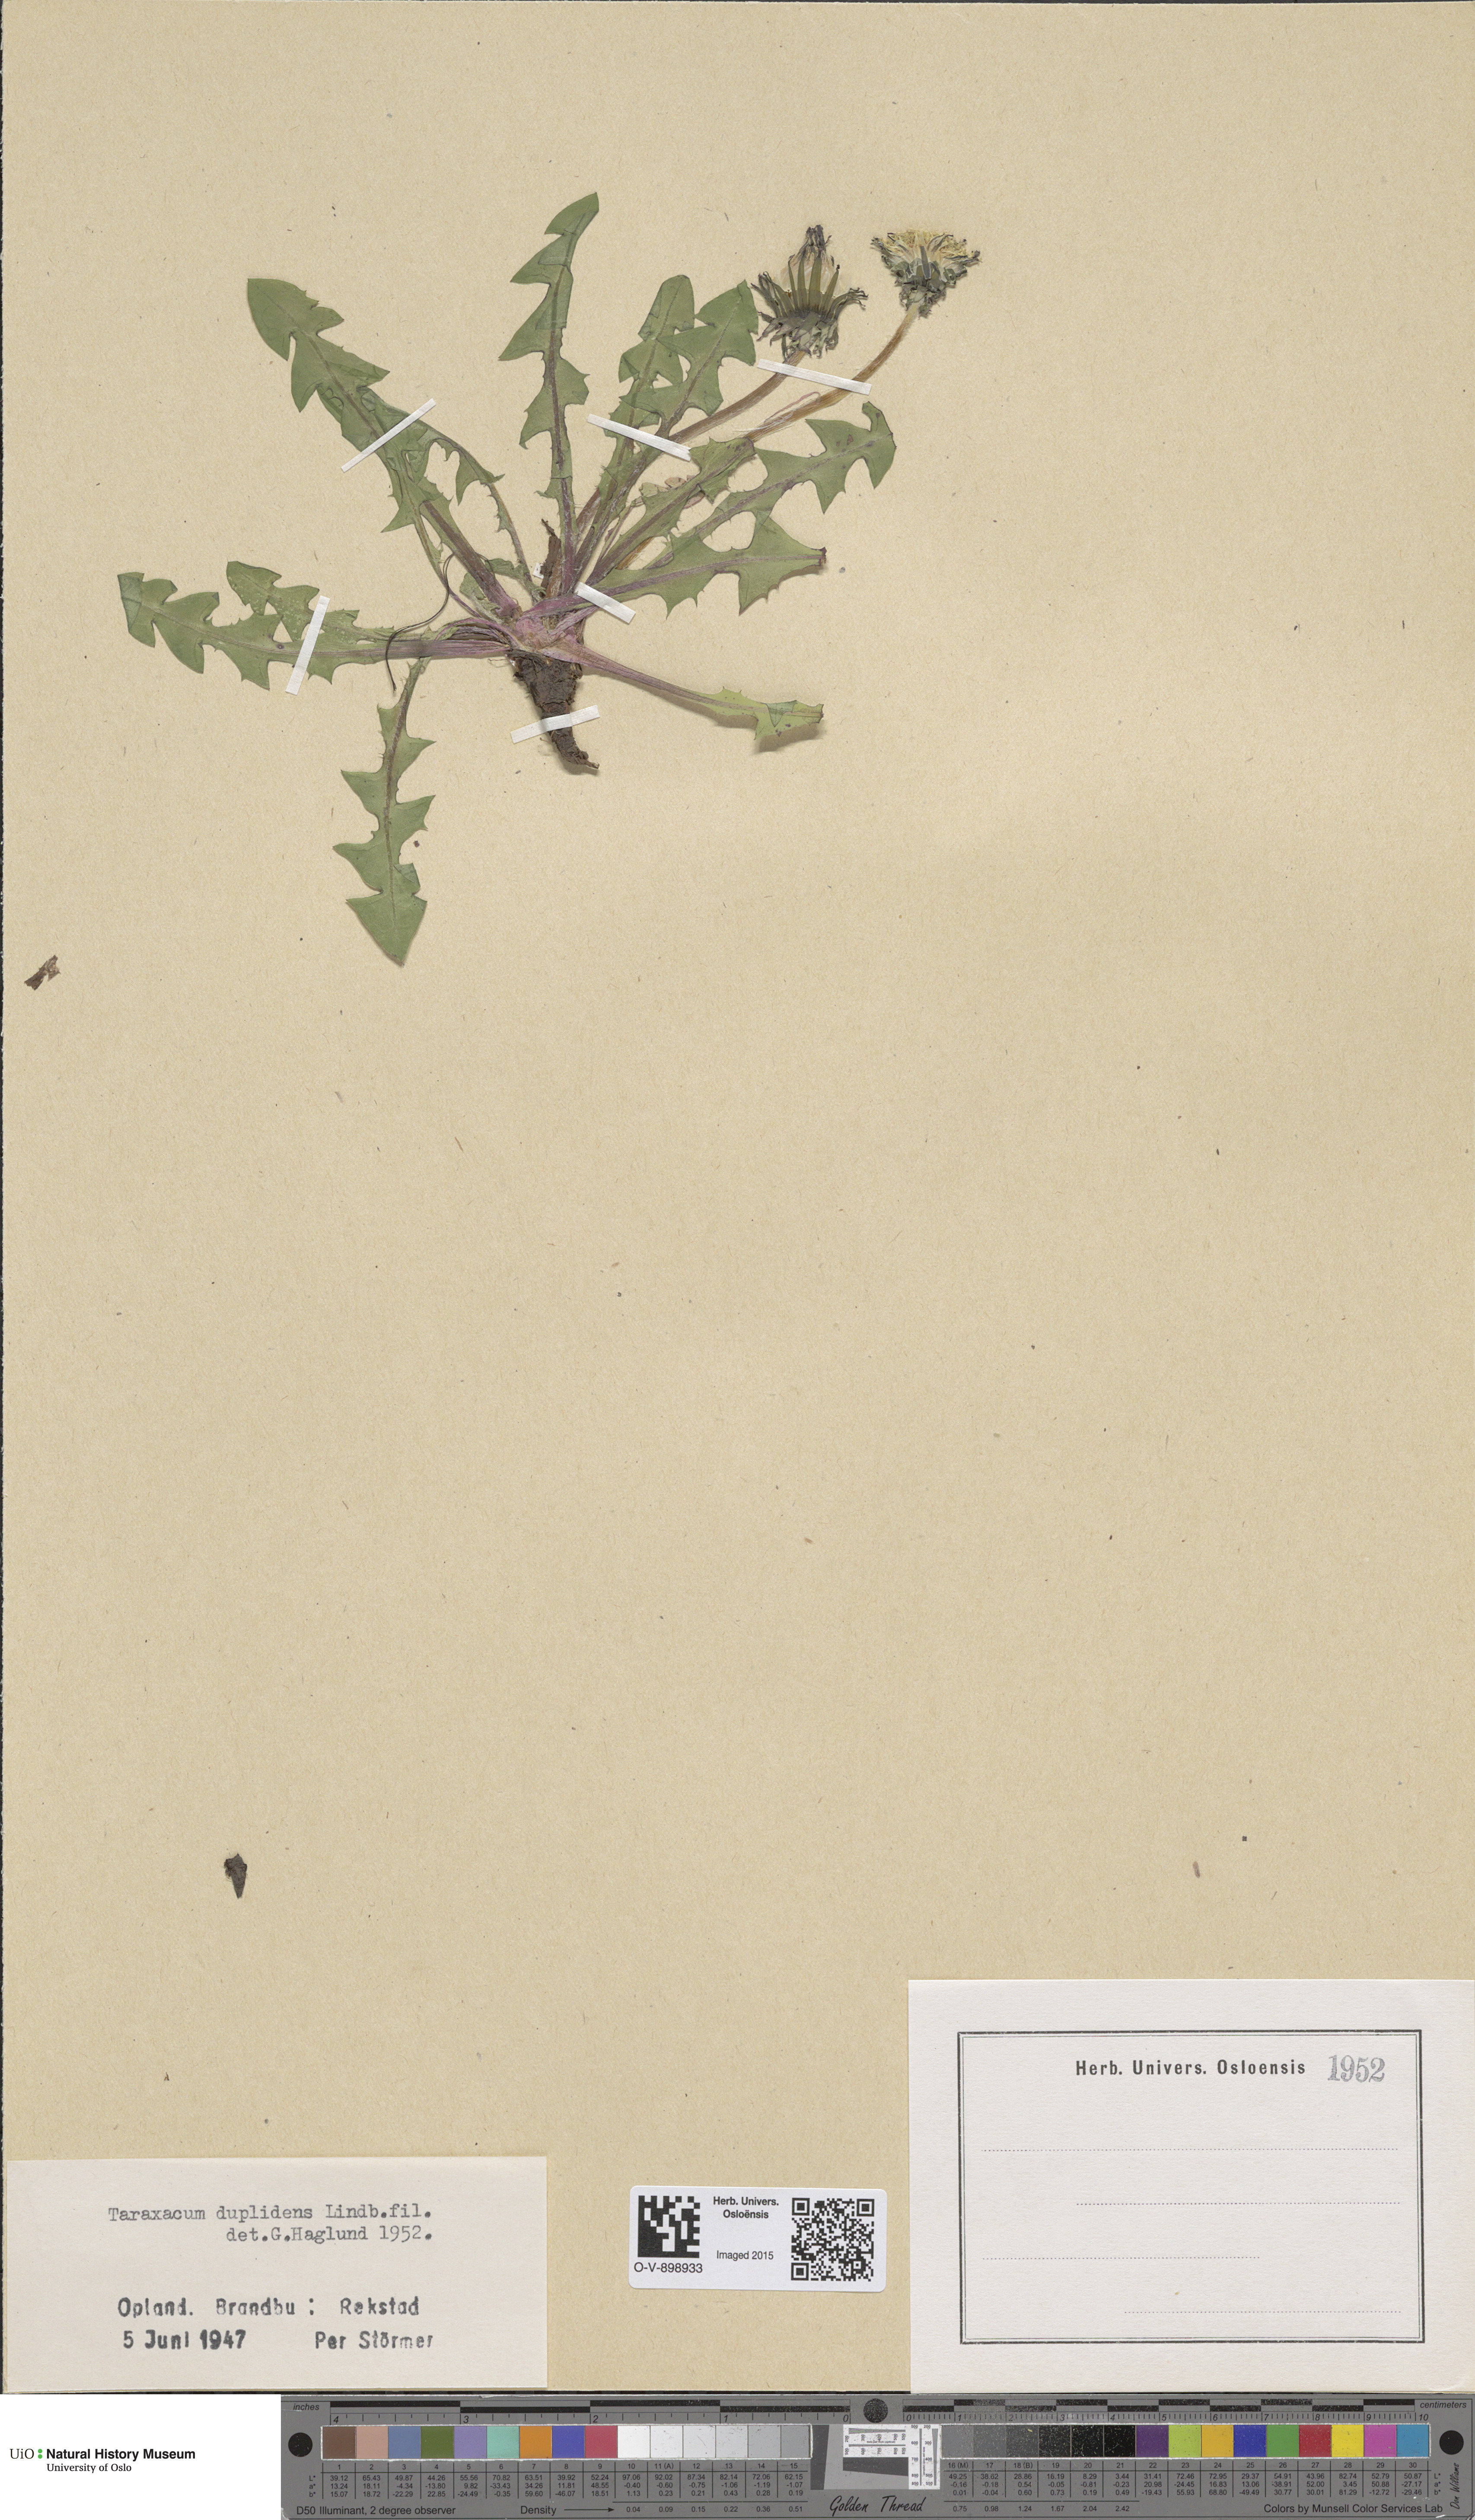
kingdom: Plantae
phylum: Tracheophyta
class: Magnoliopsida
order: Asterales
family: Asteraceae
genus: Taraxacum
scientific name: Taraxacum ostenfeldii
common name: Ostenfeld's dandelion
